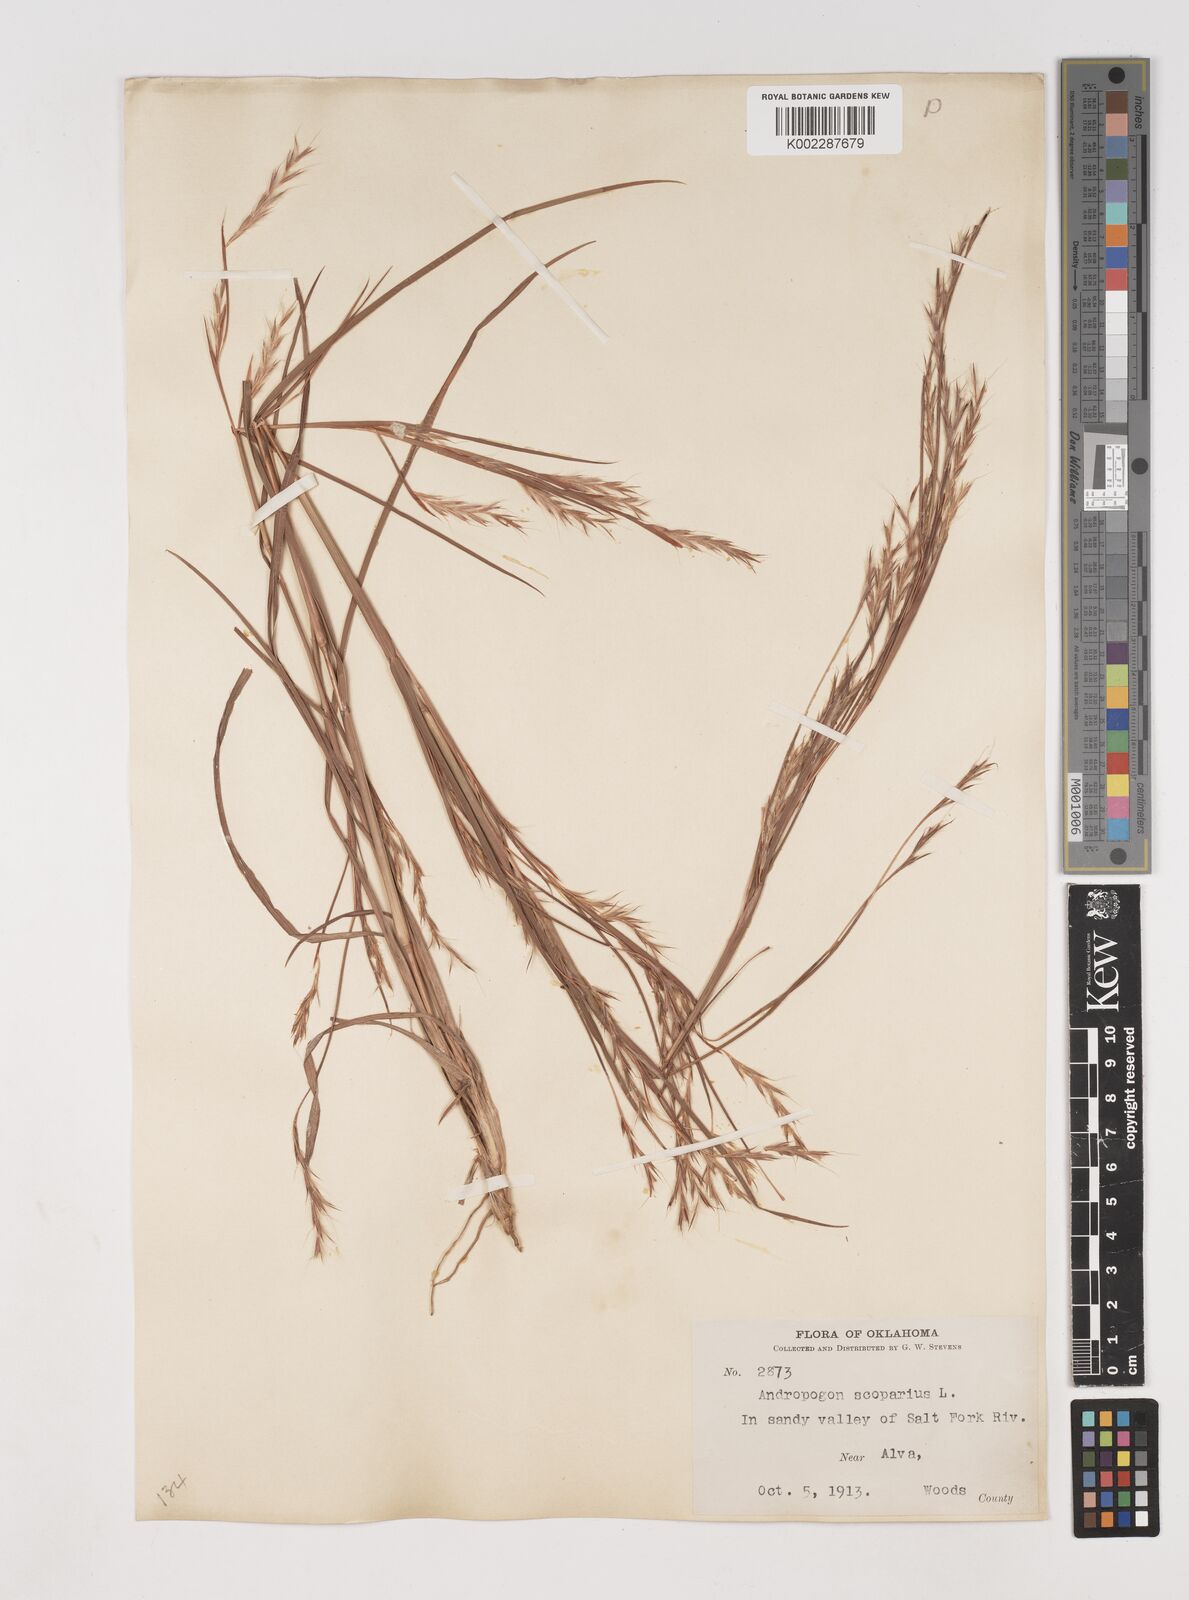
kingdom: Plantae
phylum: Tracheophyta
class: Liliopsida
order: Poales
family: Poaceae
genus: Schizachyrium
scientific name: Schizachyrium scoparium
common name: Little bluestem
